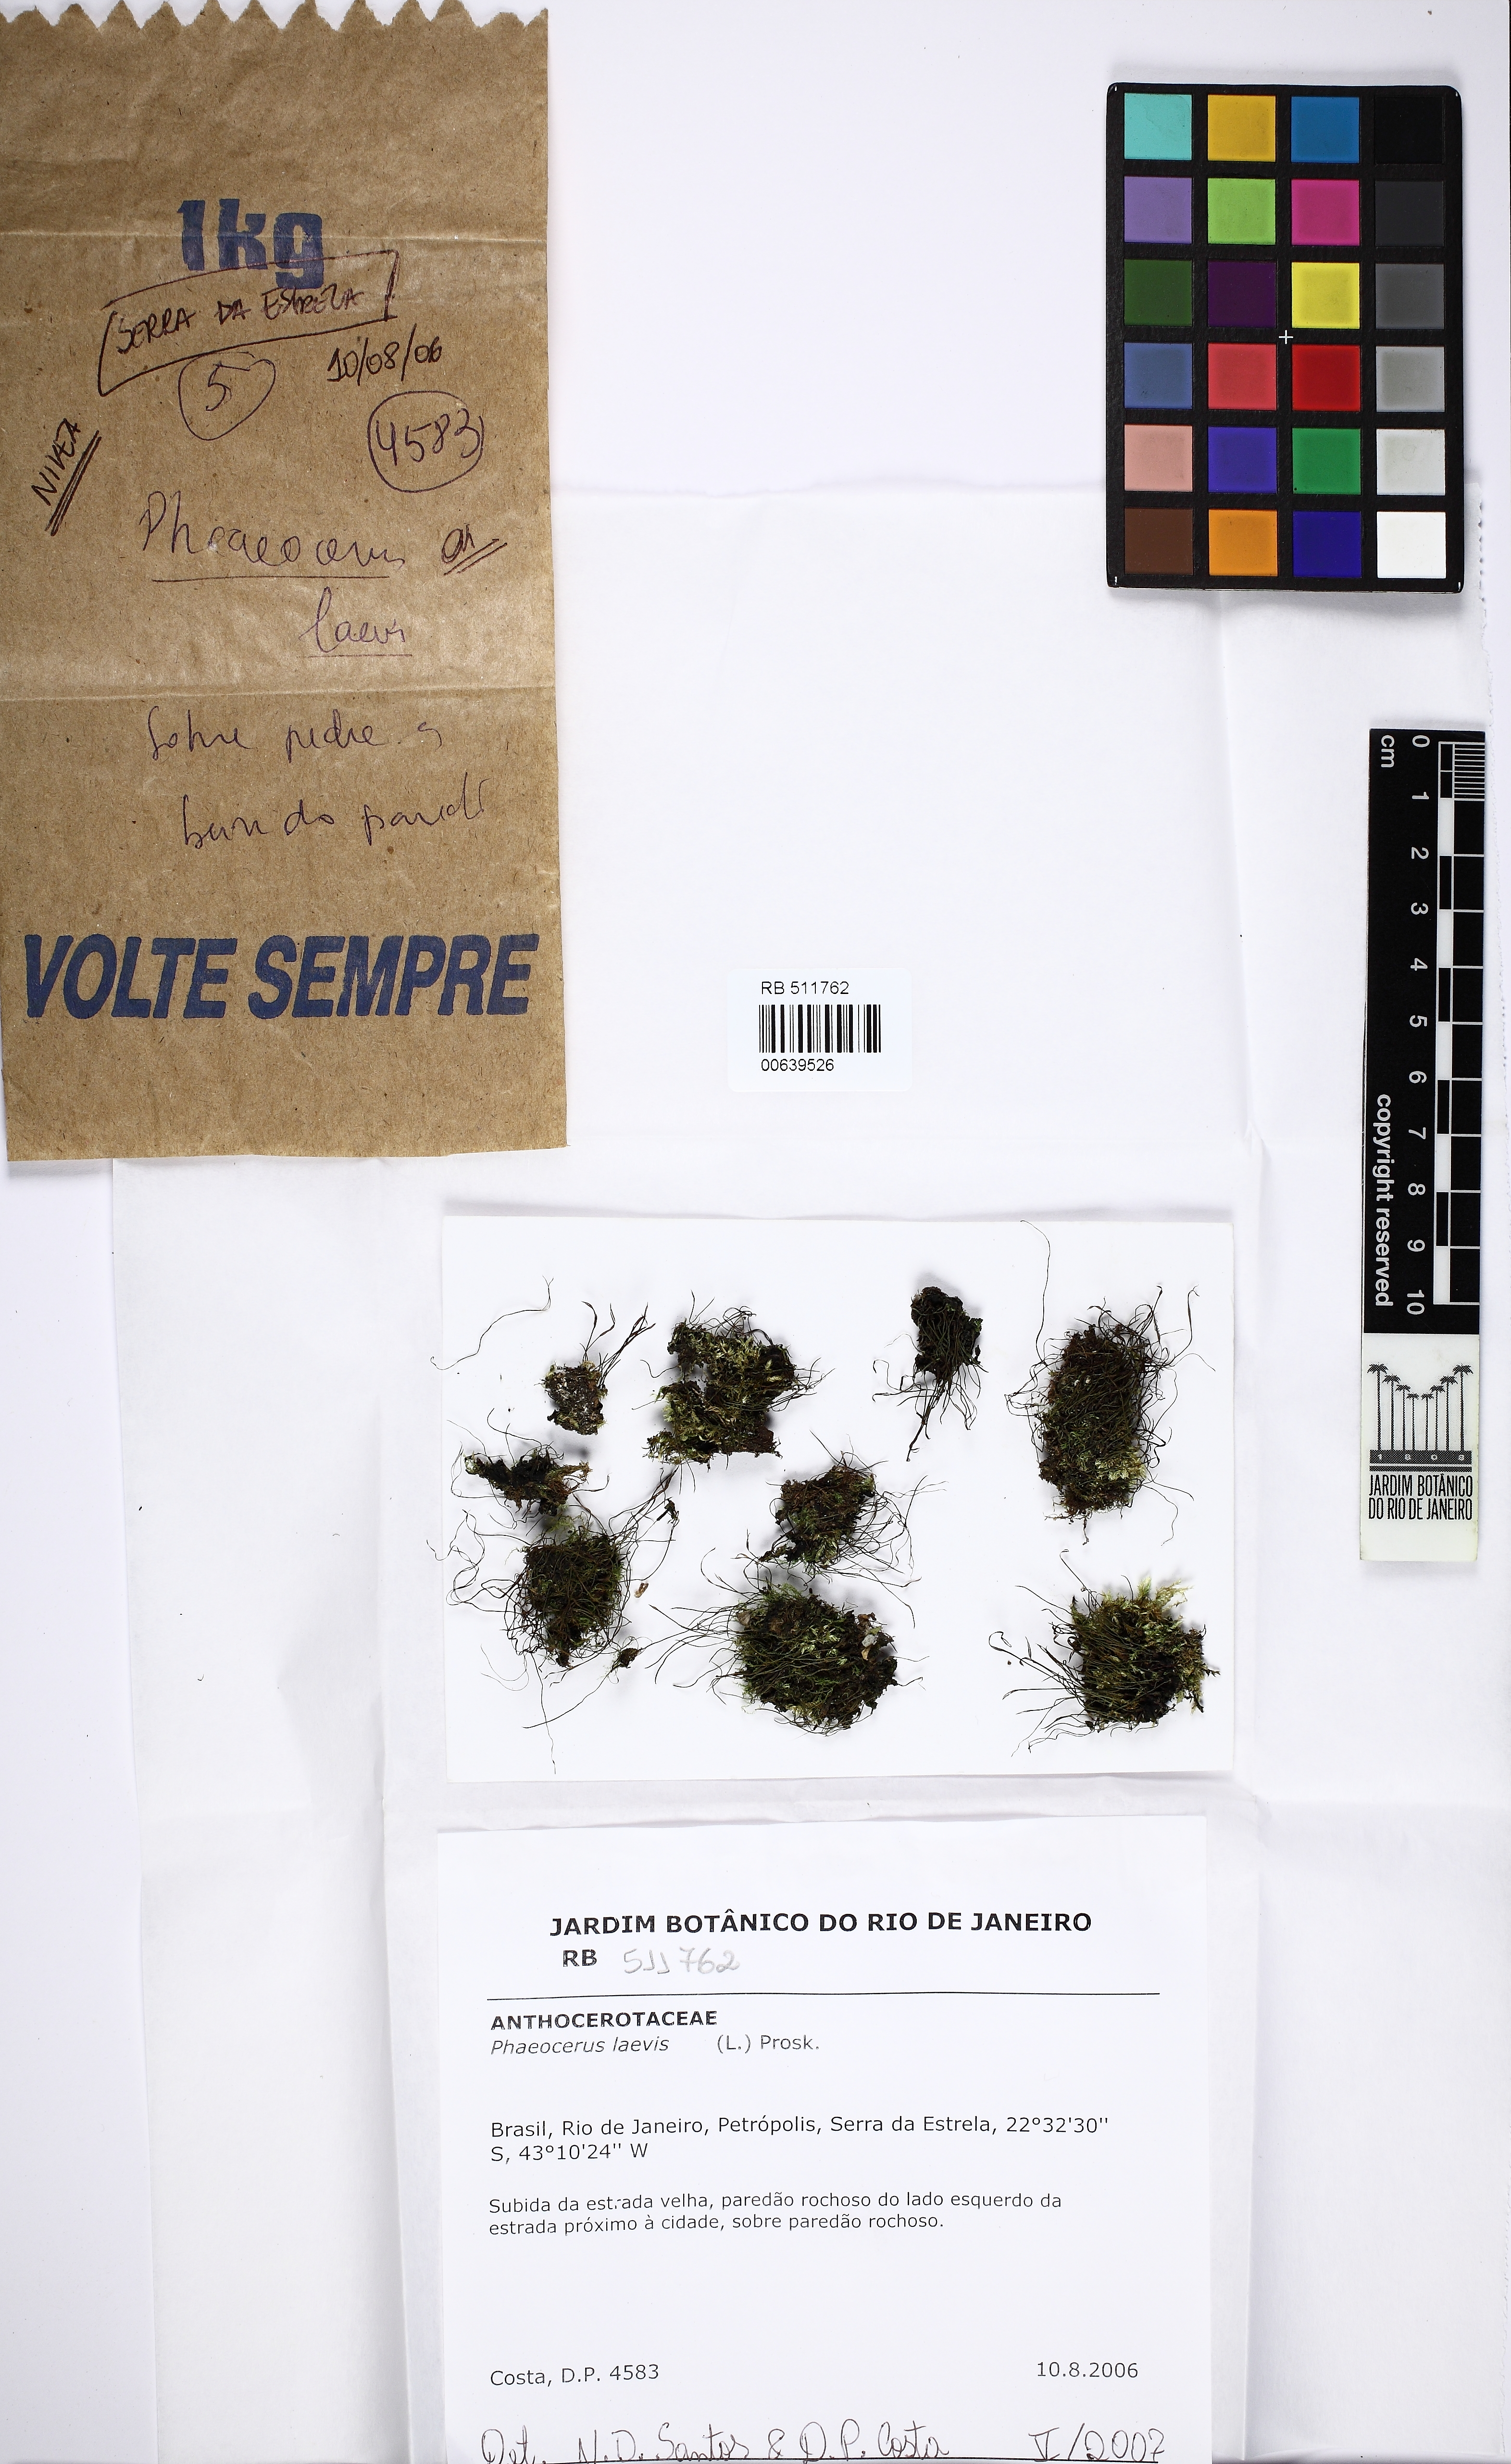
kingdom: Plantae
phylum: Anthocerotophyta
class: Anthocerotopsida
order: Notothyladales
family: Notothyladaceae
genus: Phaeoceros
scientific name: Phaeoceros laevis
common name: Smooth hornwort
